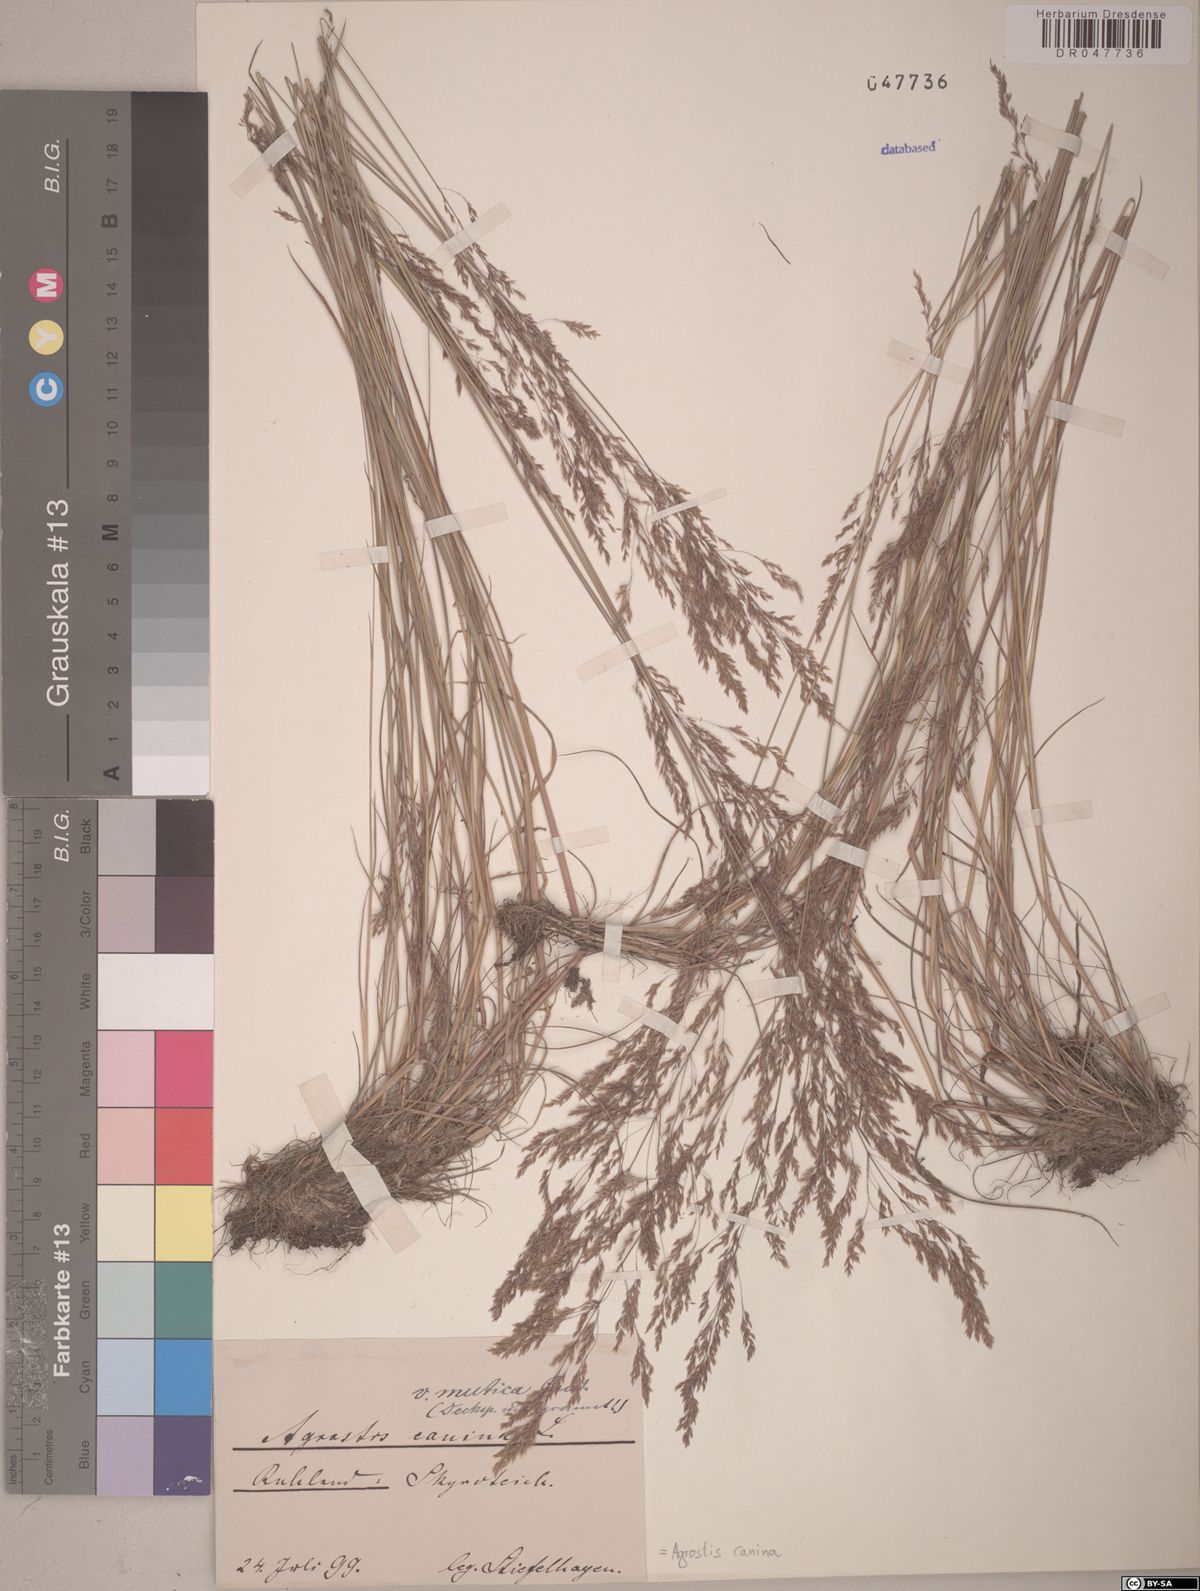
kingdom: Plantae
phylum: Tracheophyta
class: Liliopsida
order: Poales
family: Poaceae
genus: Agrostis
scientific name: Agrostis canina
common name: Velvet bent
